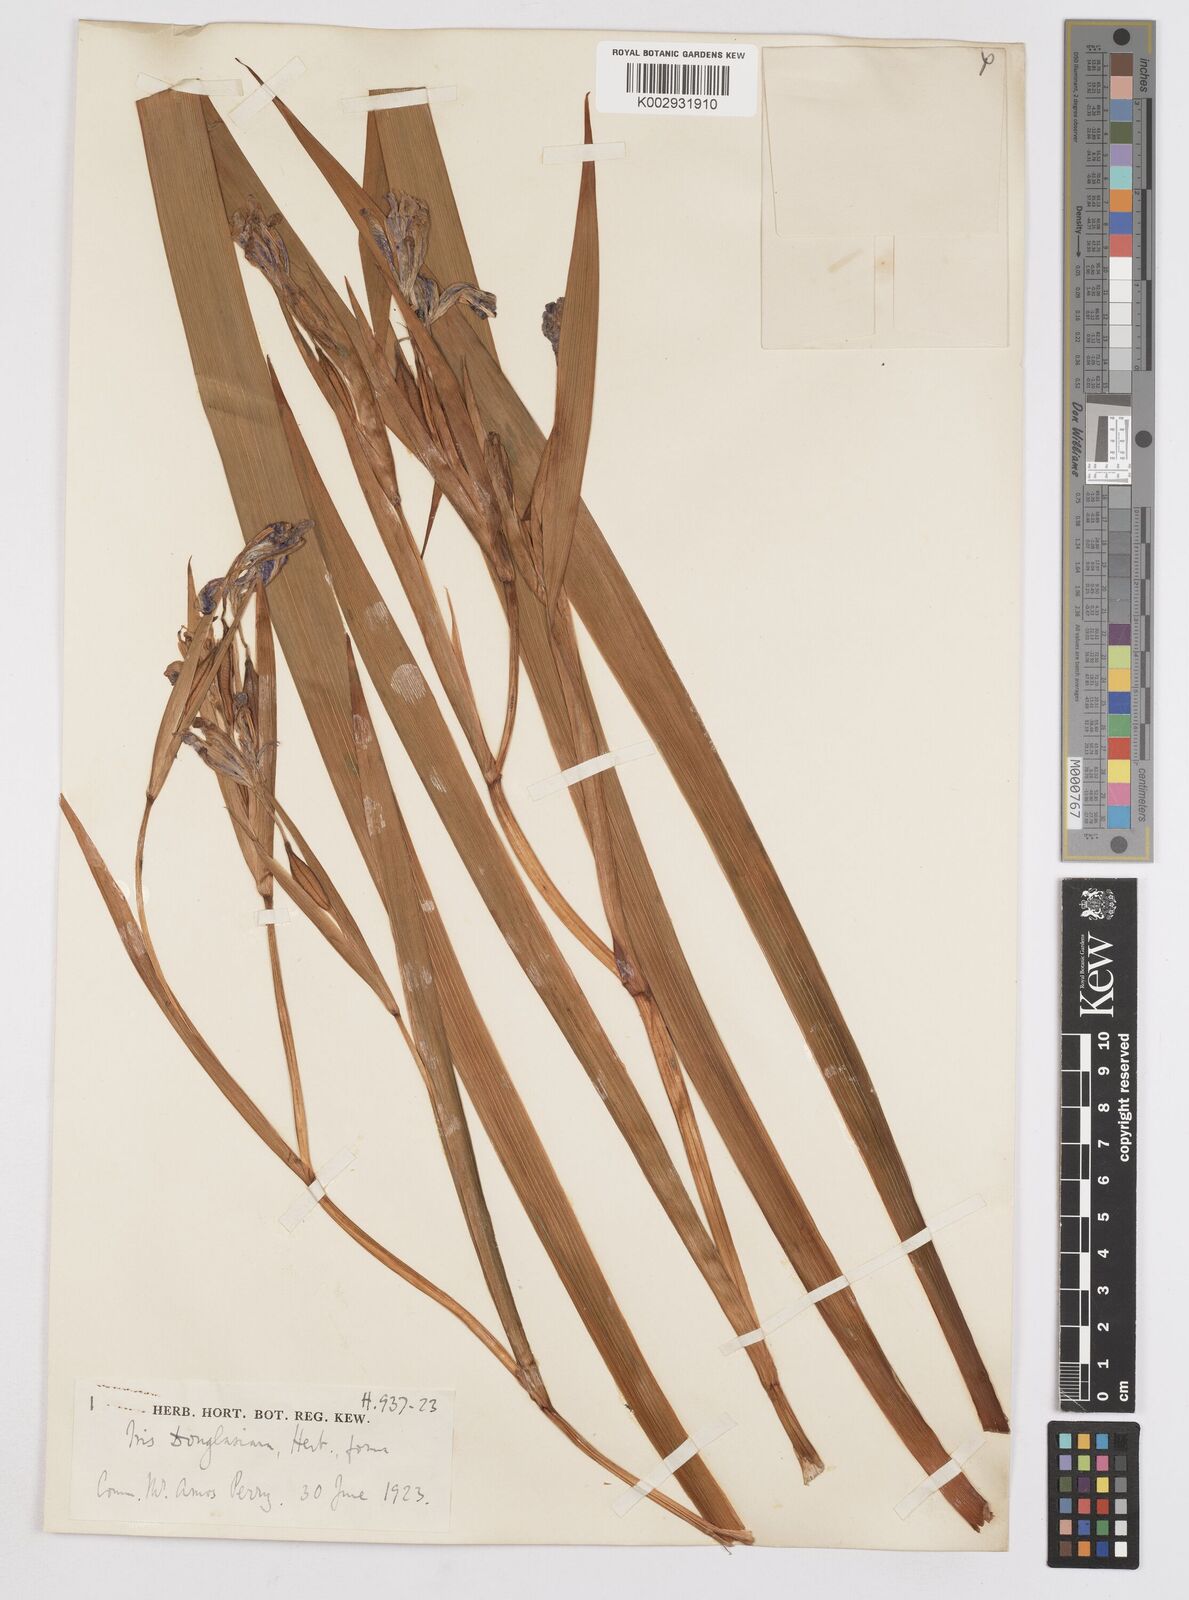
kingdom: Plantae
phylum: Tracheophyta
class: Liliopsida
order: Asparagales
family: Iridaceae
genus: Iris
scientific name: Iris douglasiana
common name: Marin iris
